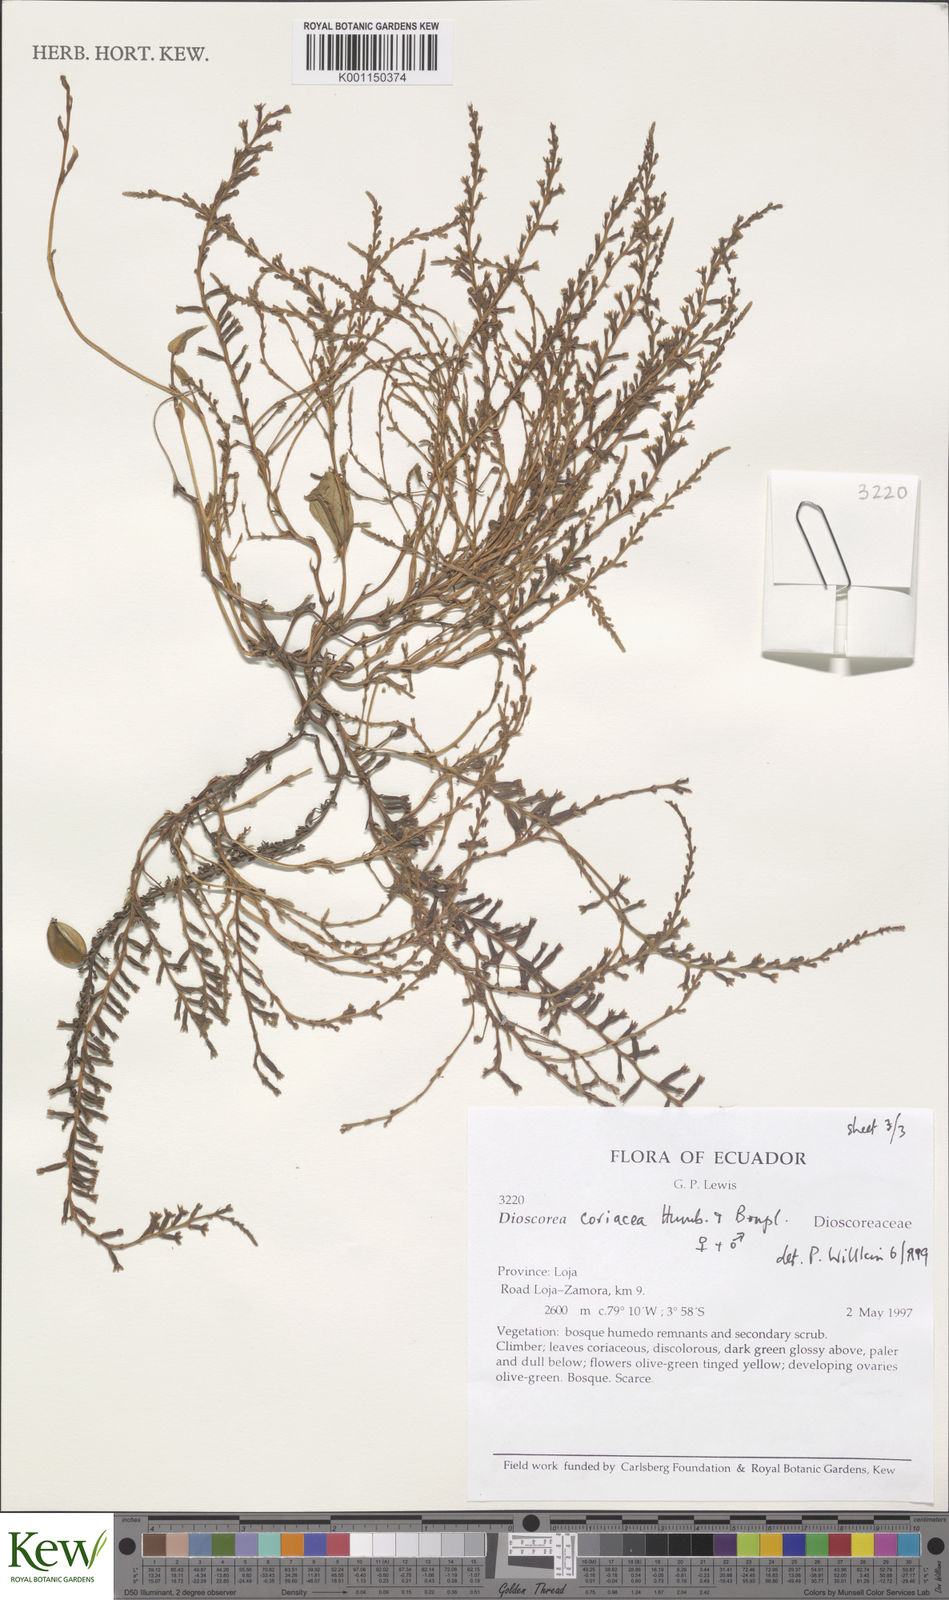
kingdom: Plantae
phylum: Tracheophyta
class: Liliopsida
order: Dioscoreales
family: Dioscoreaceae
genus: Dioscorea
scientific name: Dioscorea coriacea
